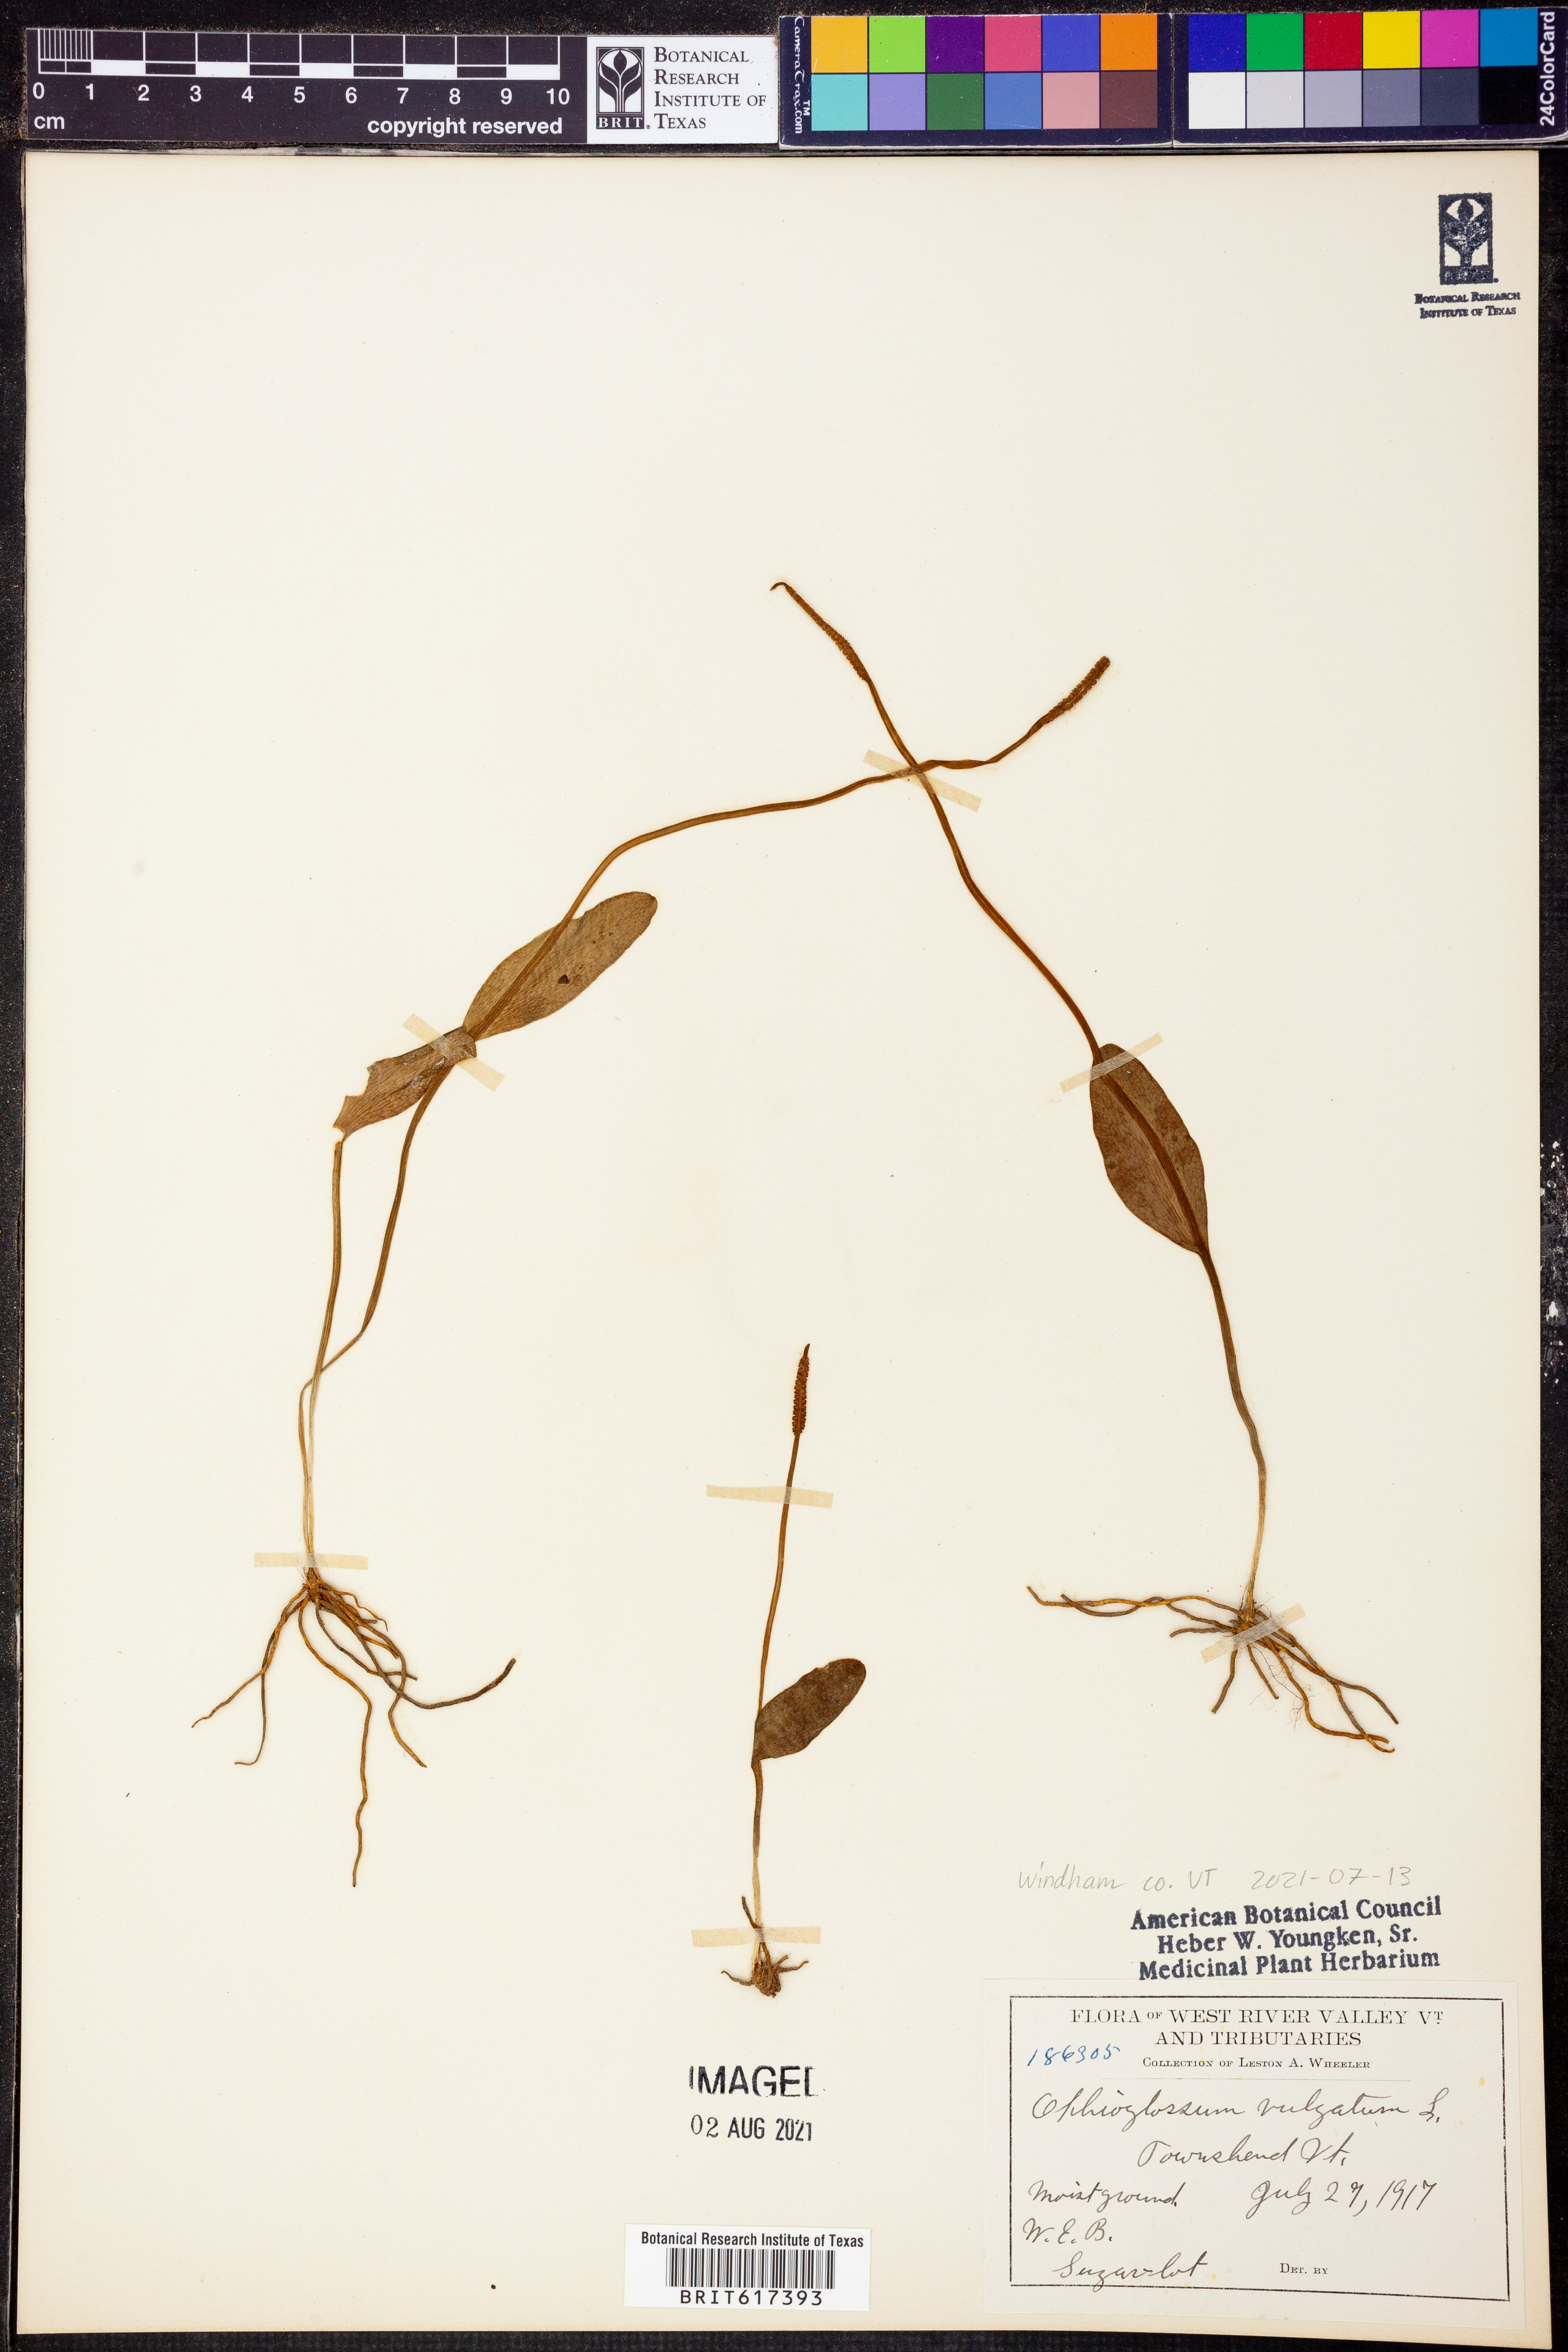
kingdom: Plantae
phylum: Tracheophyta
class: Polypodiopsida
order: Ophioglossales
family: Ophioglossaceae
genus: Ophioglossum
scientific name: Ophioglossum vulgatum
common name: Adder's-tongue
